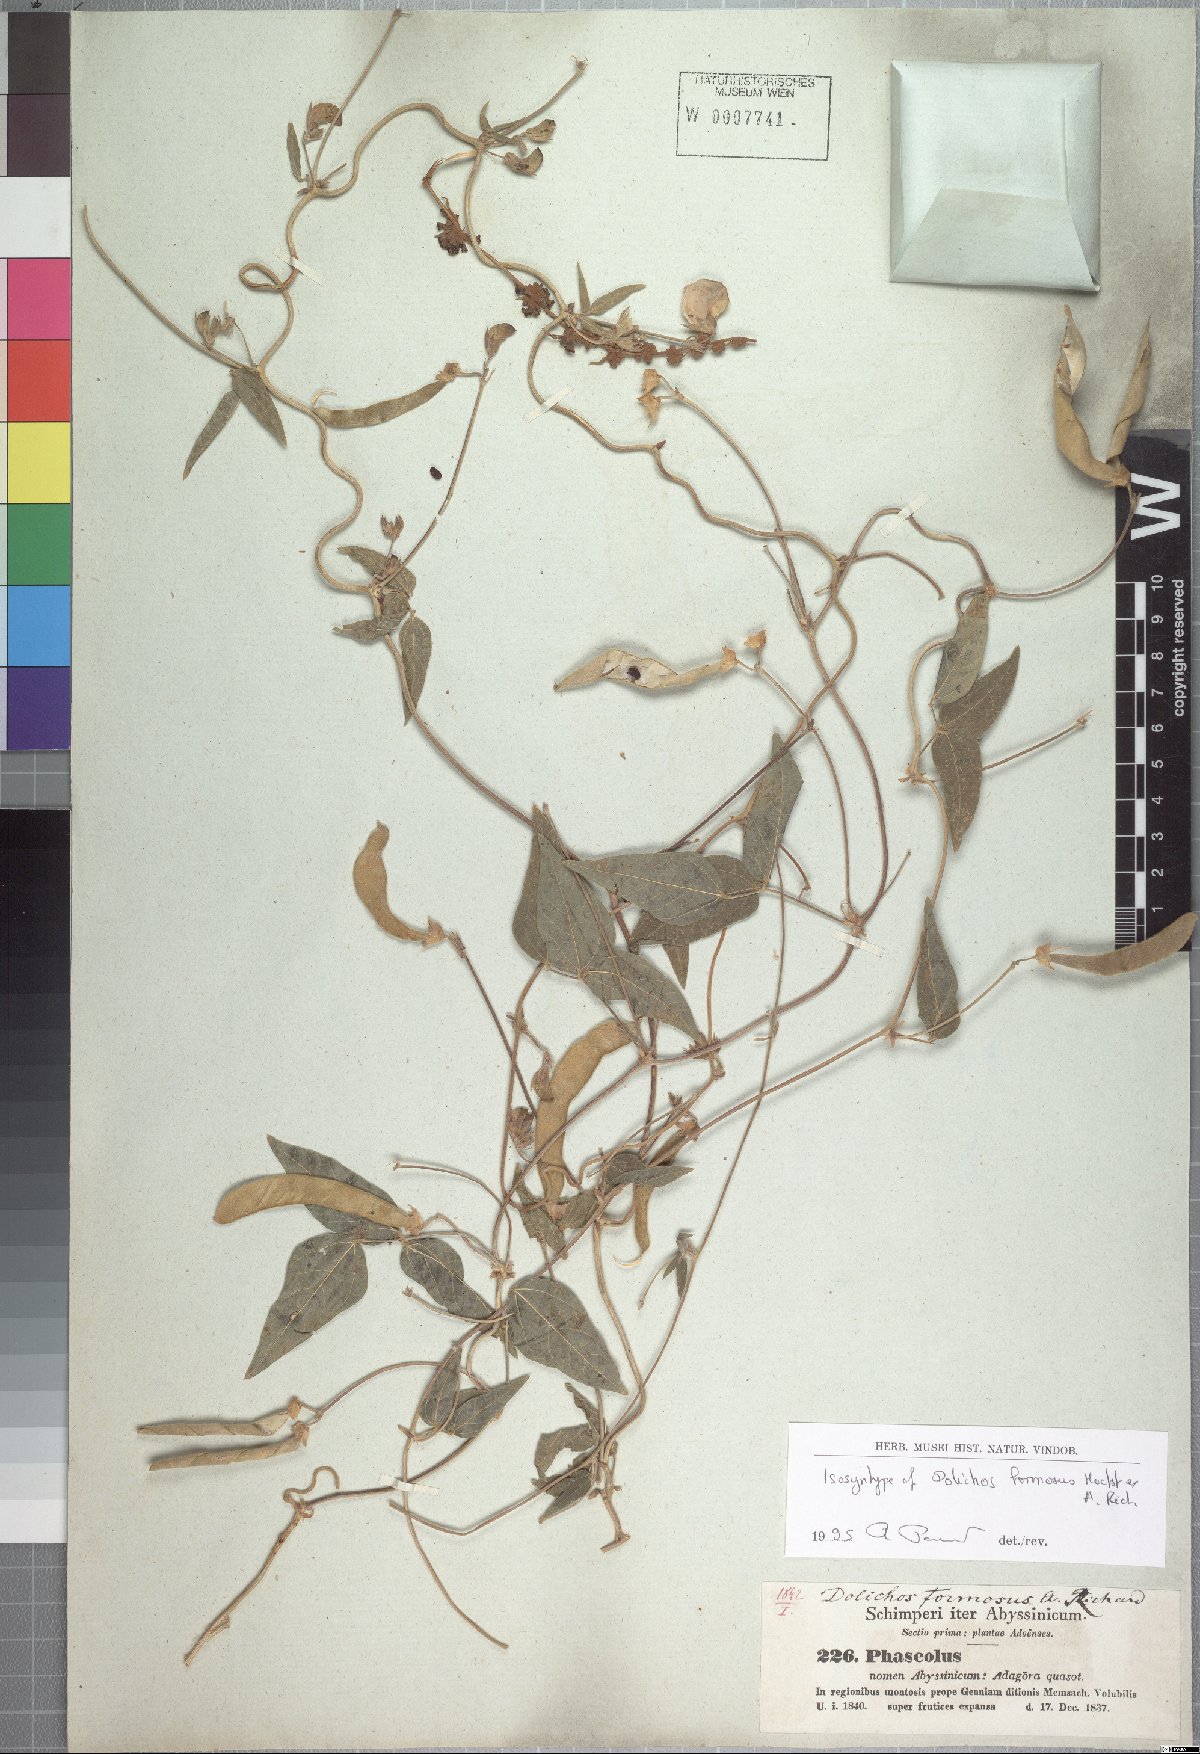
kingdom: Plantae
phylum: Tracheophyta
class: Magnoliopsida
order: Fabales
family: Fabaceae
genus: Dolichos
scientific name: Dolichos sericeus
